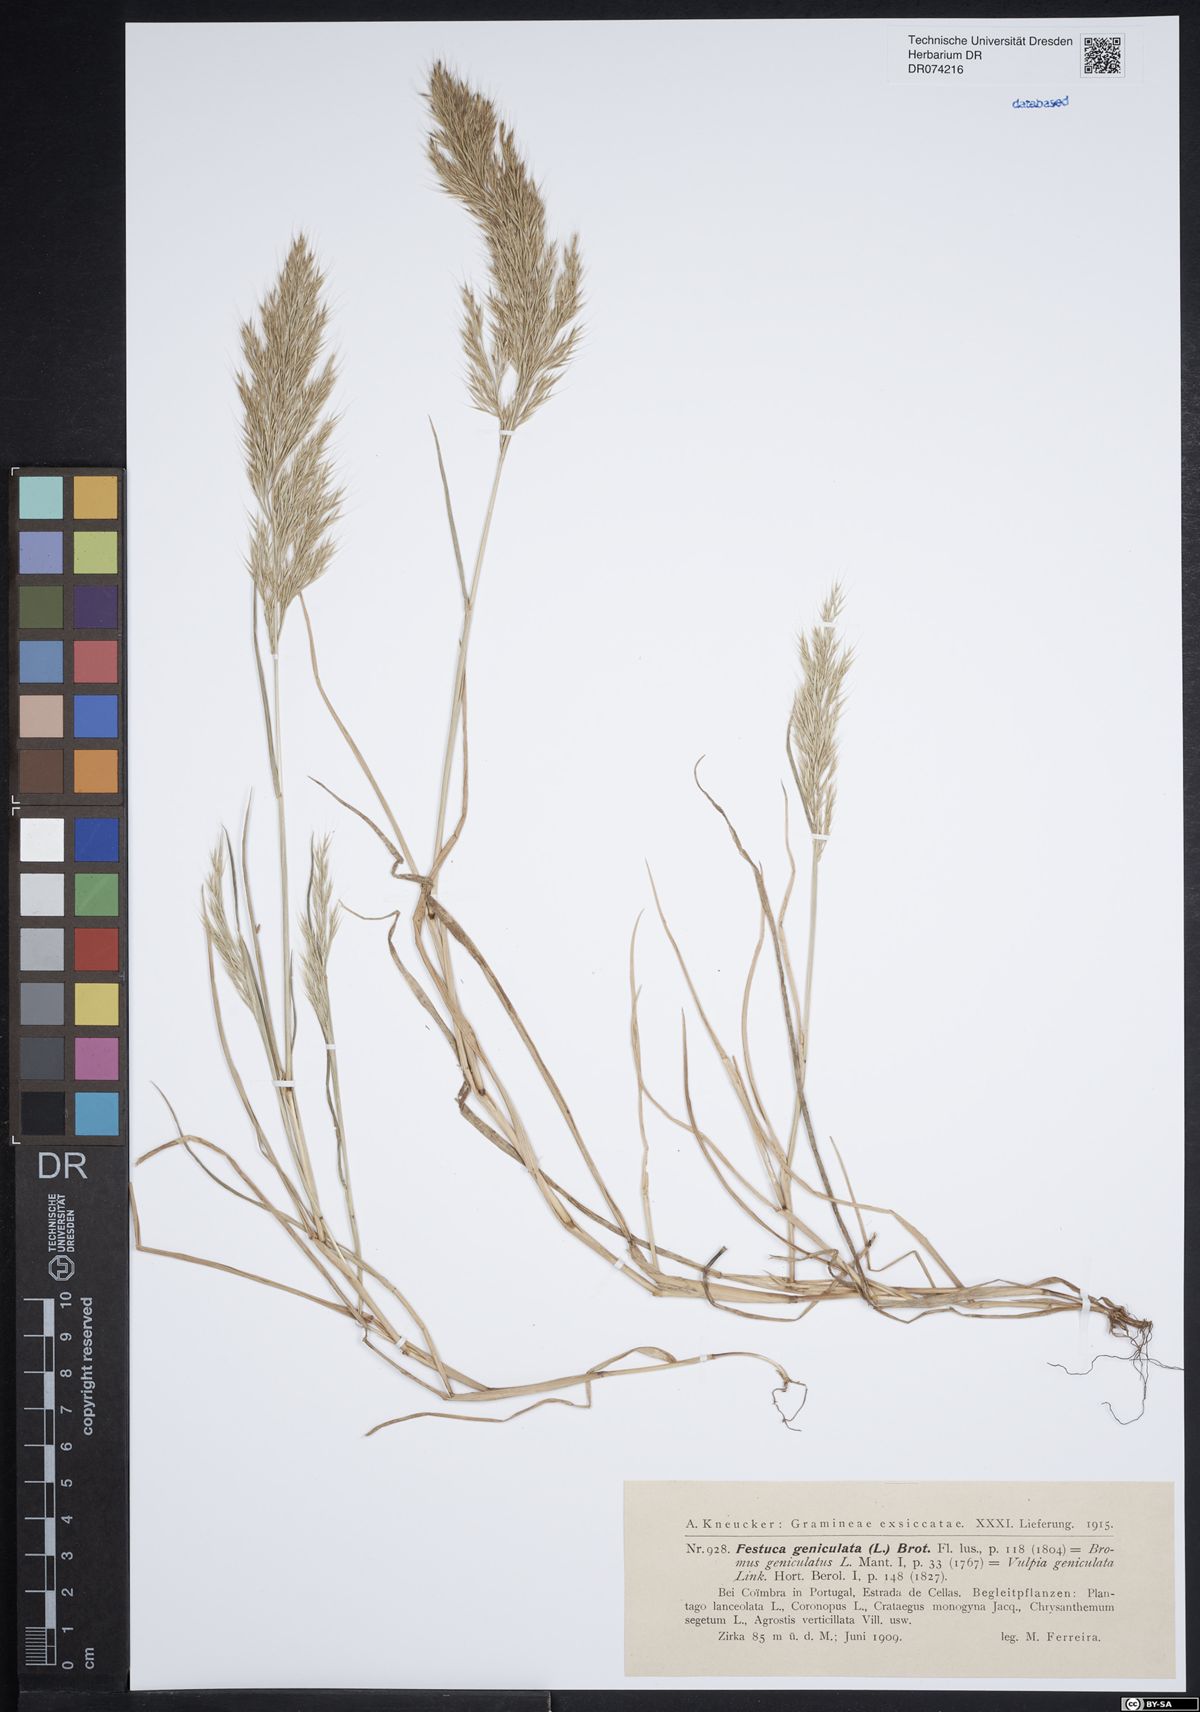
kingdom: Plantae
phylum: Tracheophyta
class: Liliopsida
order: Poales
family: Poaceae
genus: Festuca
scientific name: Festuca geniculata
